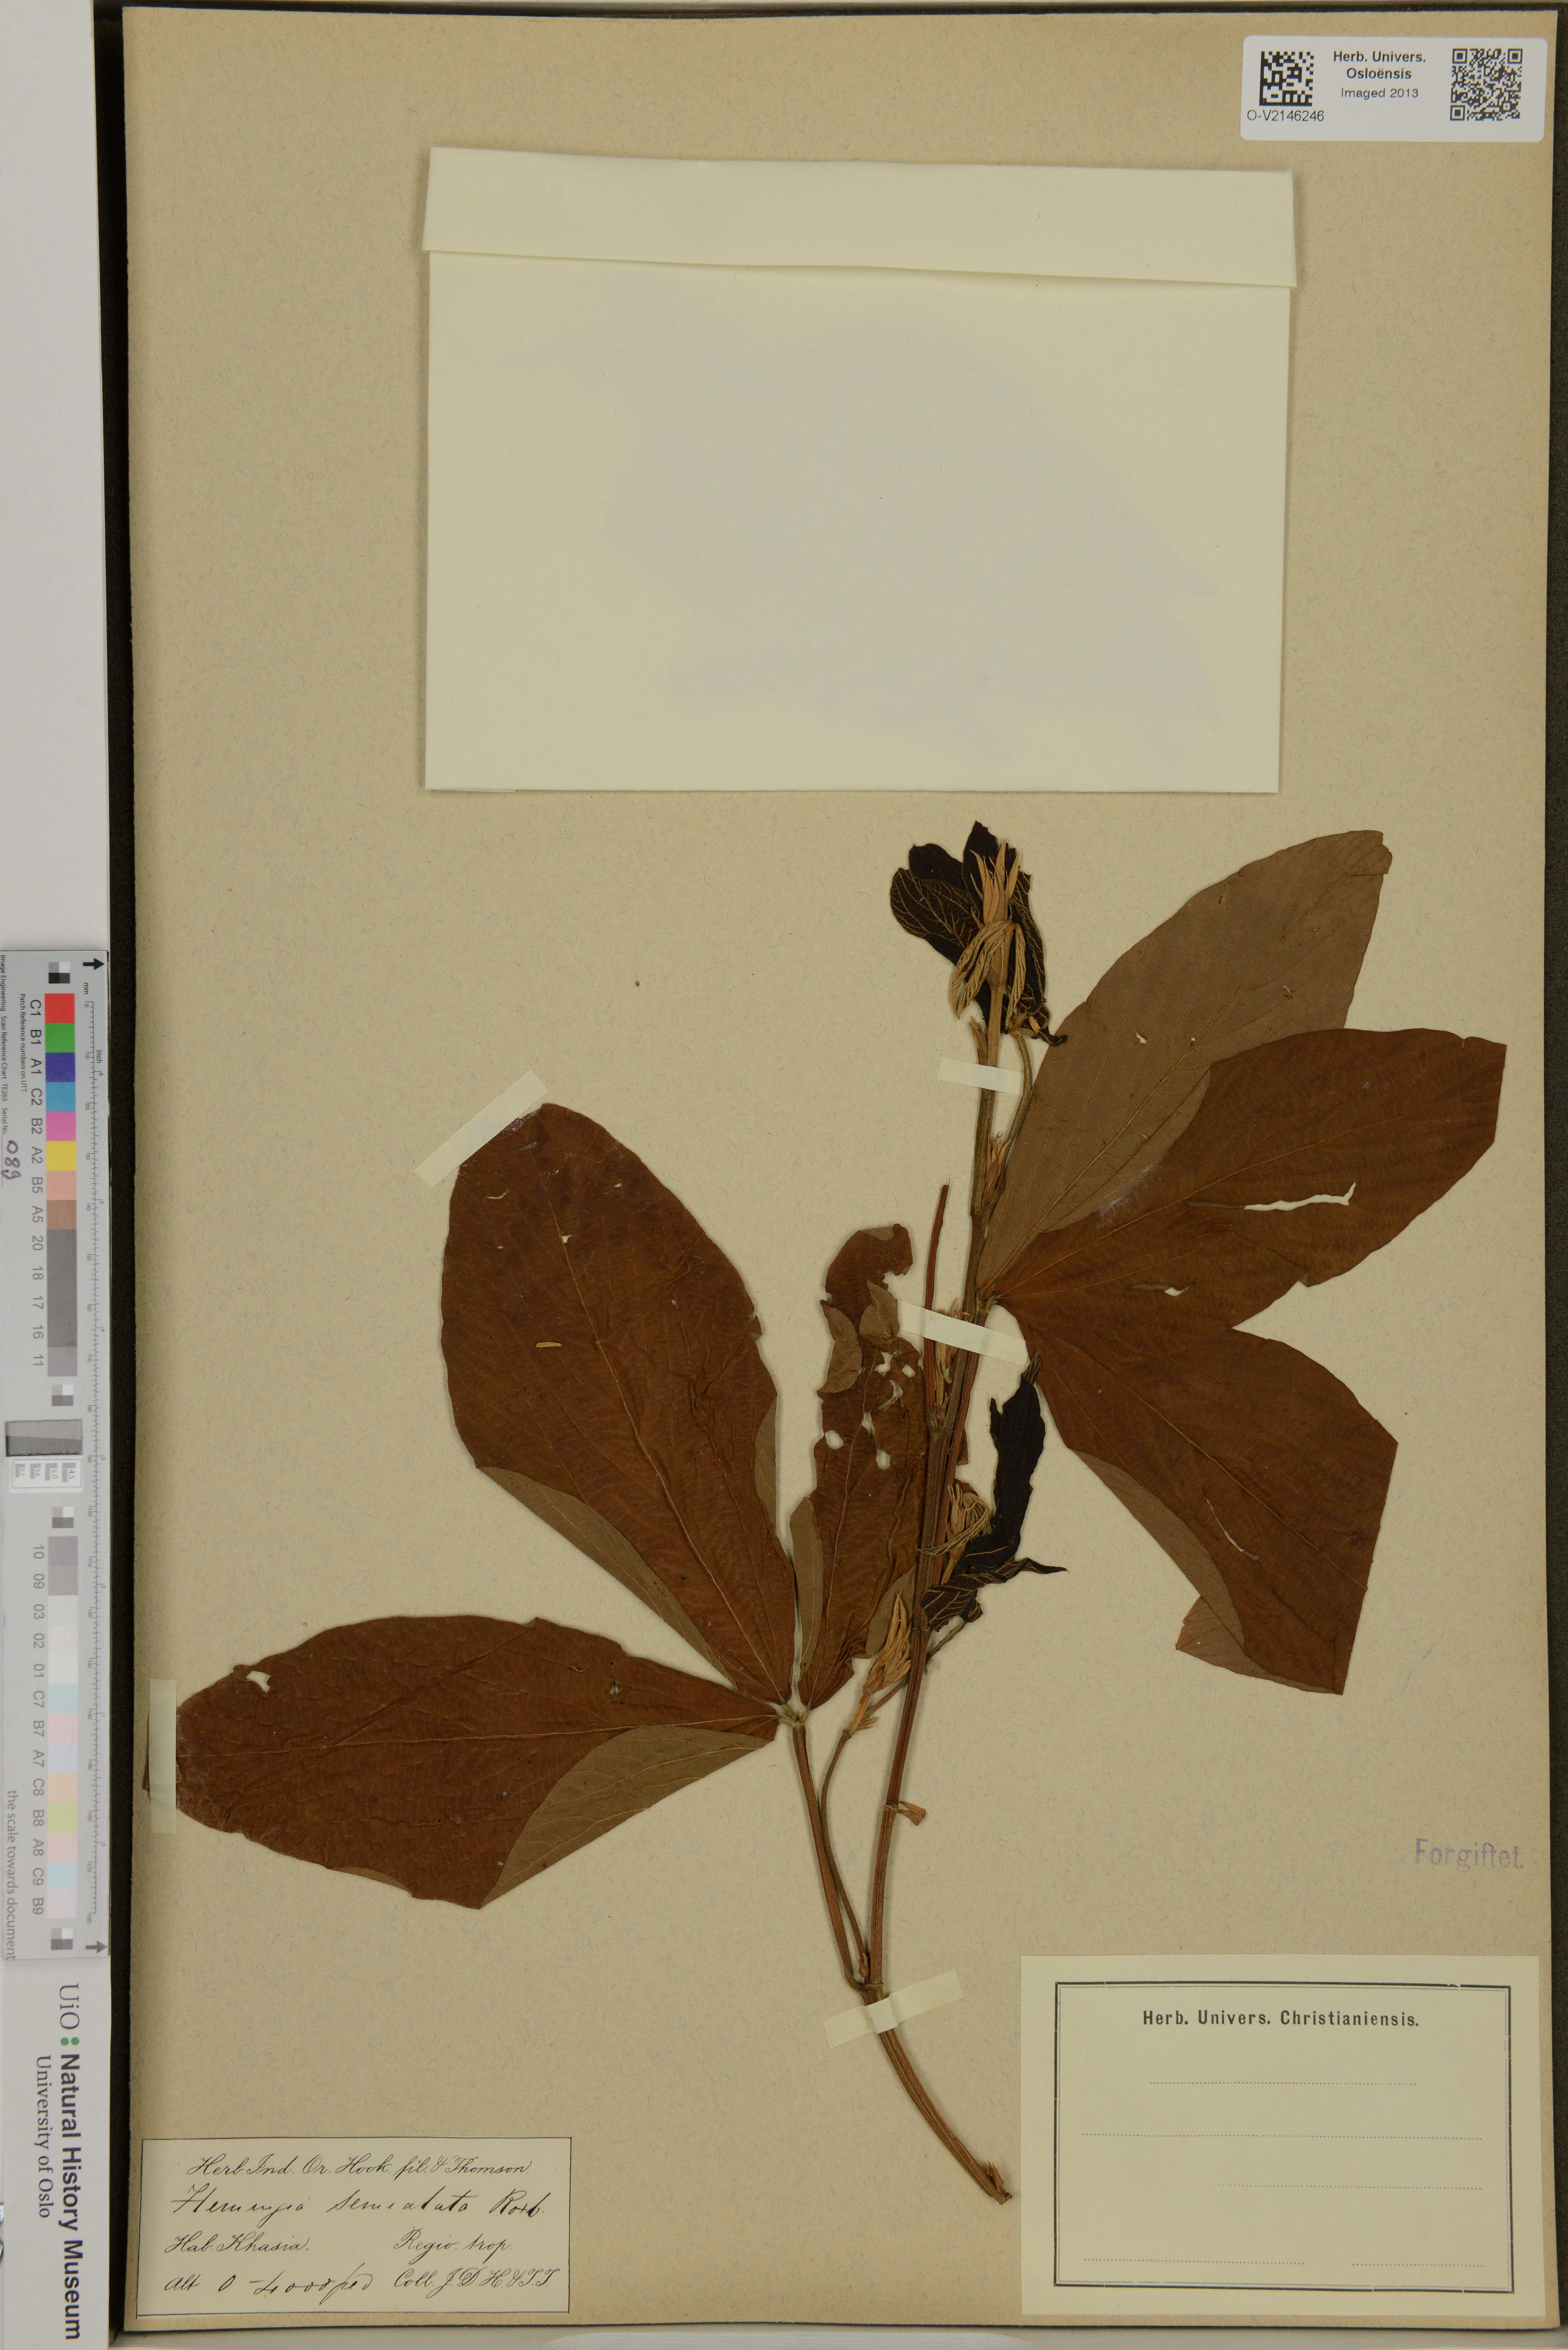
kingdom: Plantae
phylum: Tracheophyta
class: Magnoliopsida
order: Fabales
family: Fabaceae
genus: Eriosema
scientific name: Eriosema
